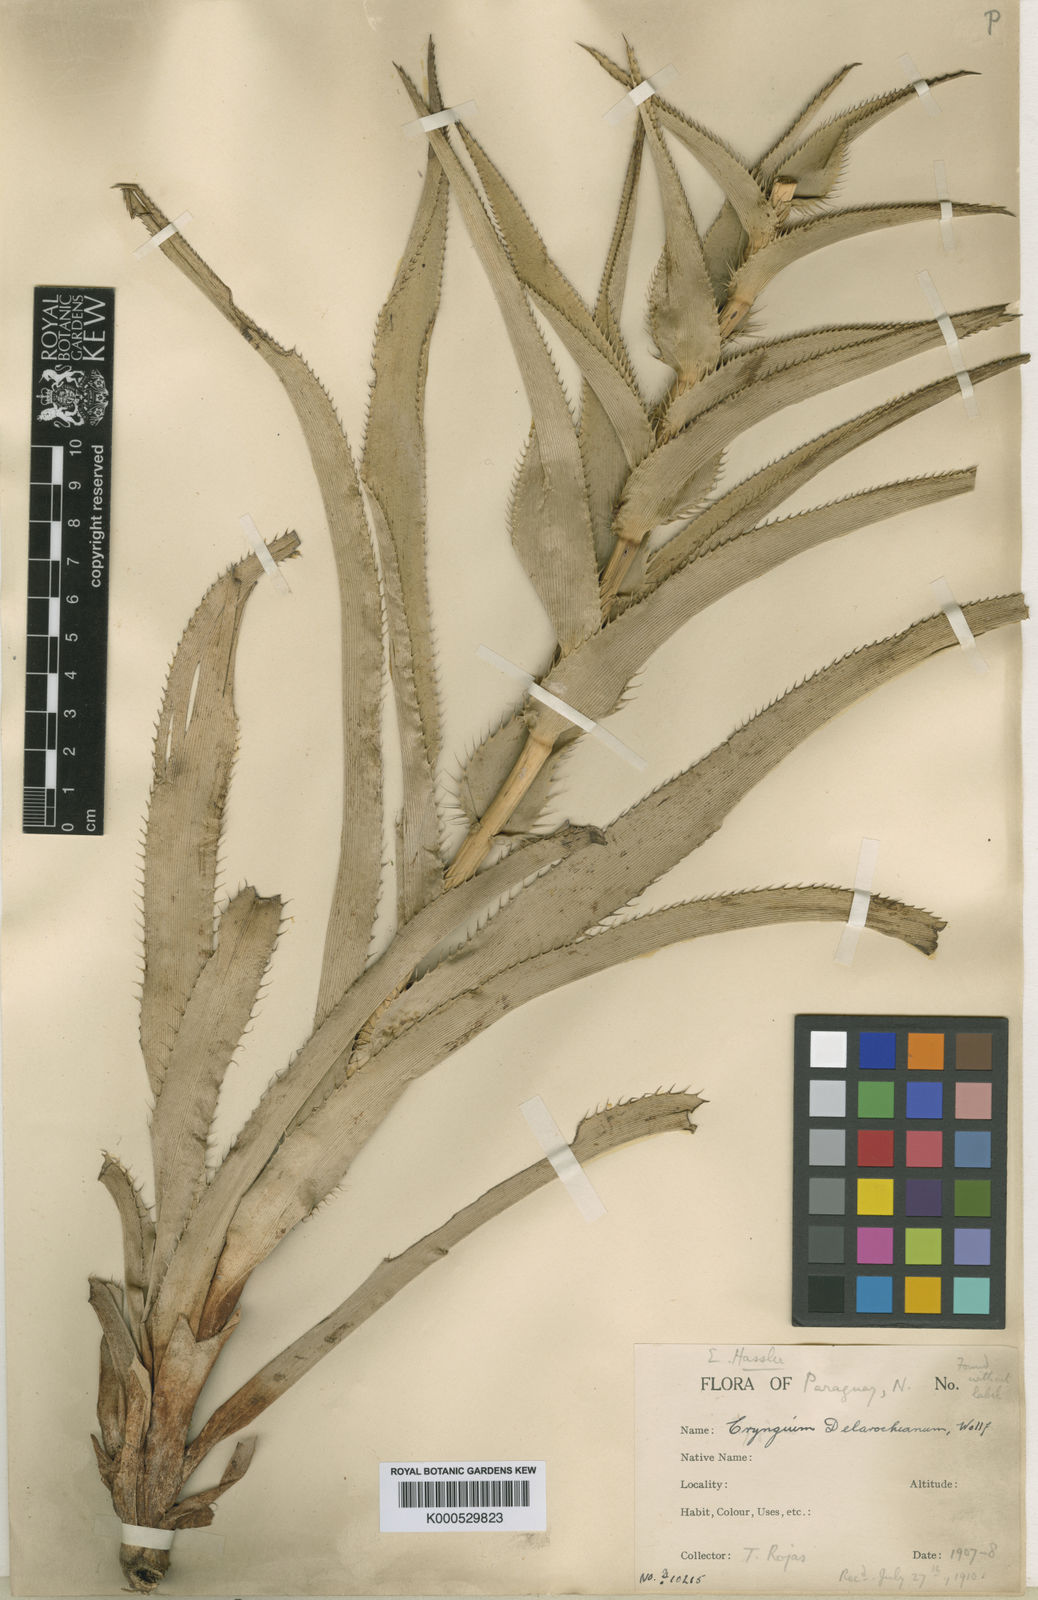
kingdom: Plantae
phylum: Tracheophyta
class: Magnoliopsida
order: Apiales
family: Apiaceae
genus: Eryngium
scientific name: Eryngium rochei
